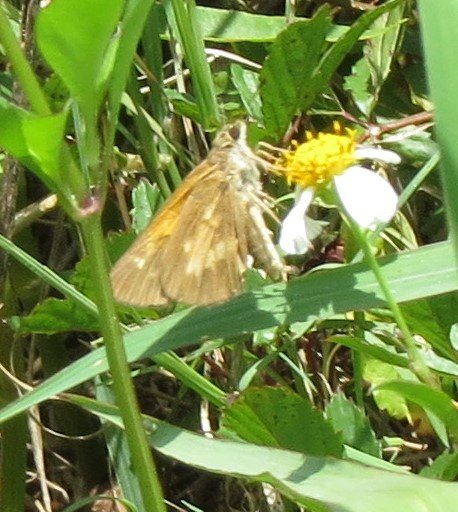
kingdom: Animalia
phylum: Arthropoda
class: Insecta
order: Lepidoptera
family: Hesperiidae
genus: Poanes
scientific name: Poanes viator
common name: Broad-winged Skipper
